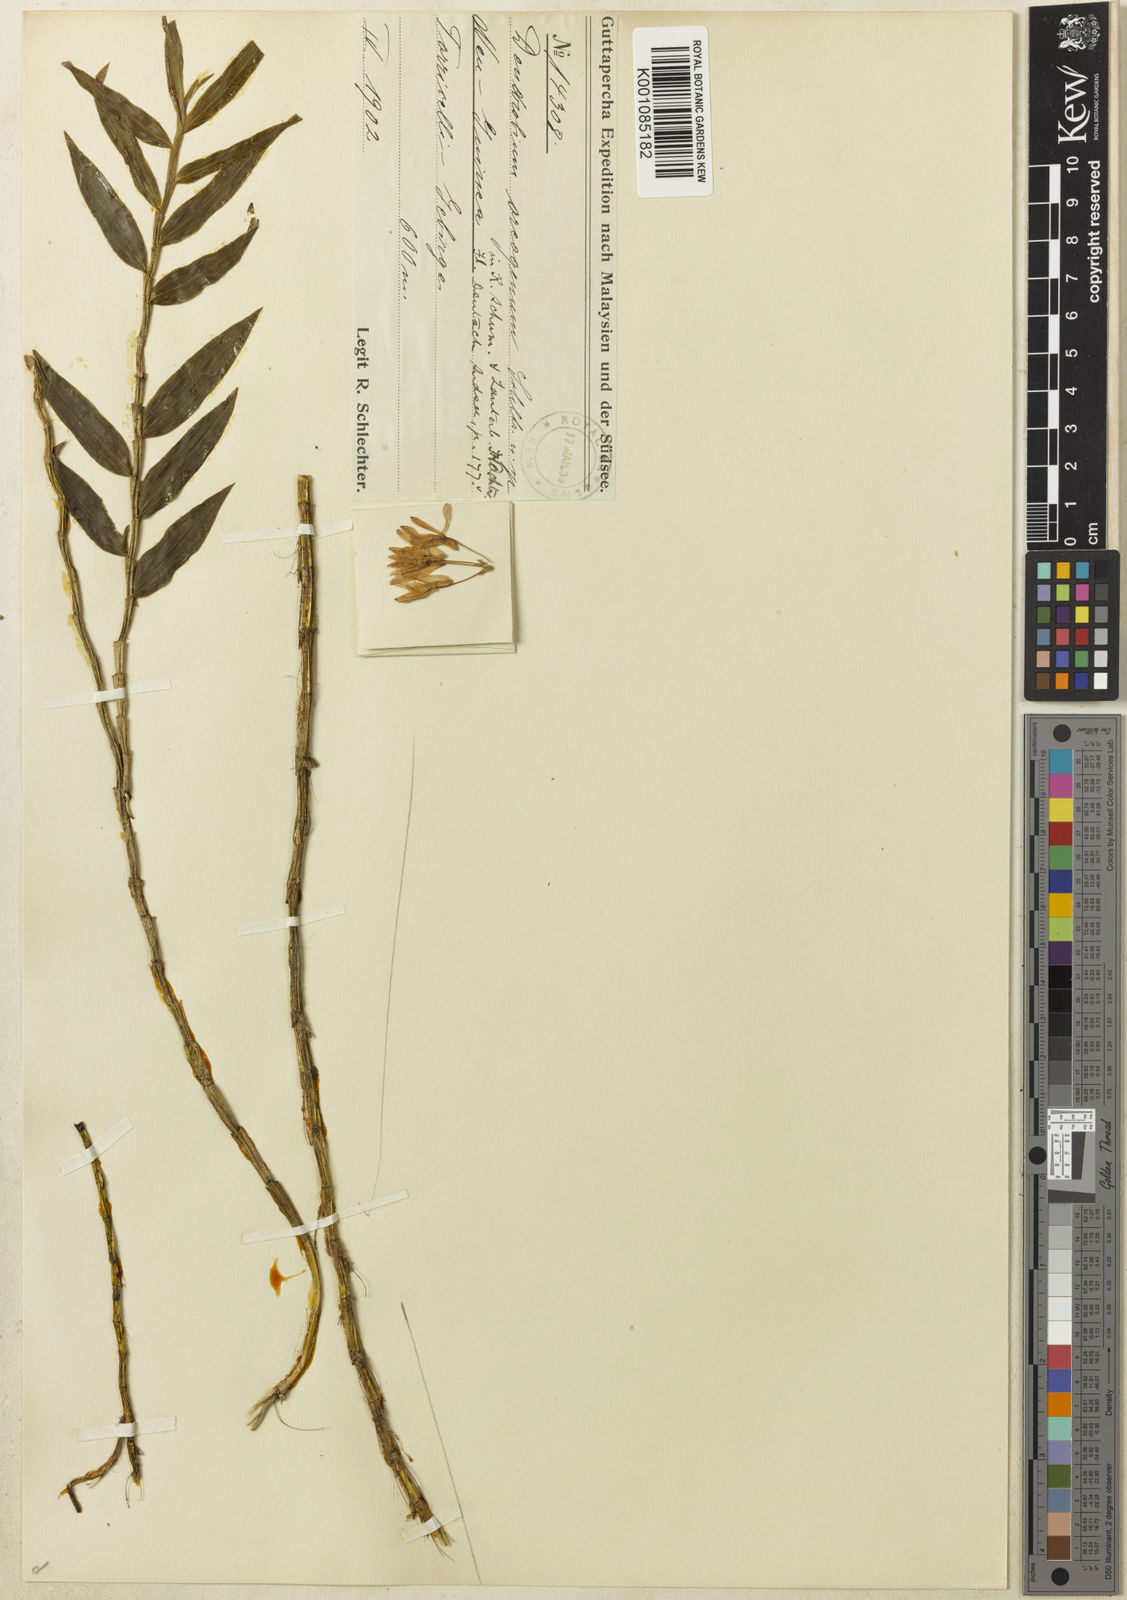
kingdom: Plantae
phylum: Tracheophyta
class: Liliopsida
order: Asparagales
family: Orchidaceae
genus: Dendrobium
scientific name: Dendrobium trichostomum
